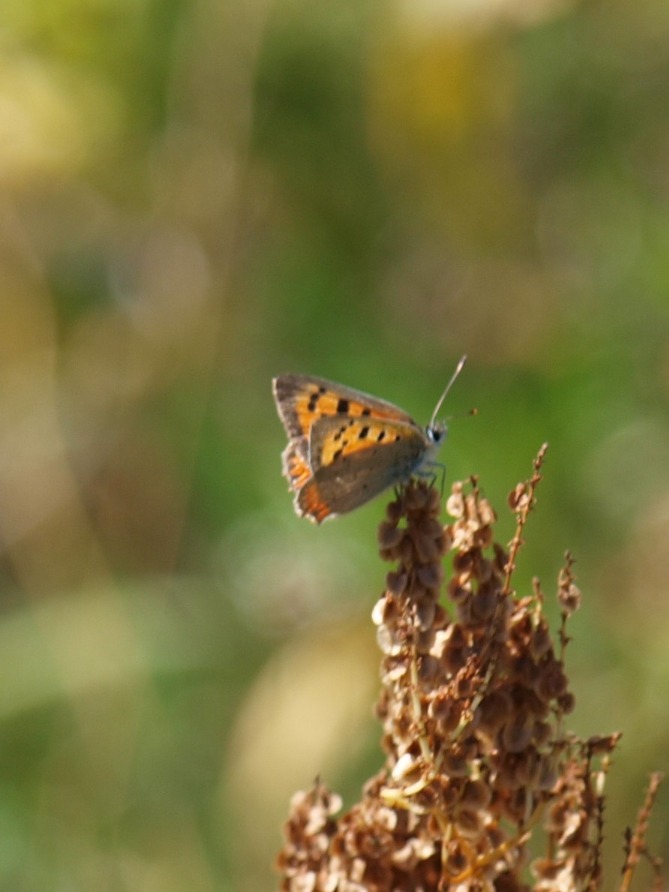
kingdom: Animalia
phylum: Arthropoda
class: Insecta
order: Lepidoptera
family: Lycaenidae
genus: Lycaena
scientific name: Lycaena phlaeas
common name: Lille ildfugl
